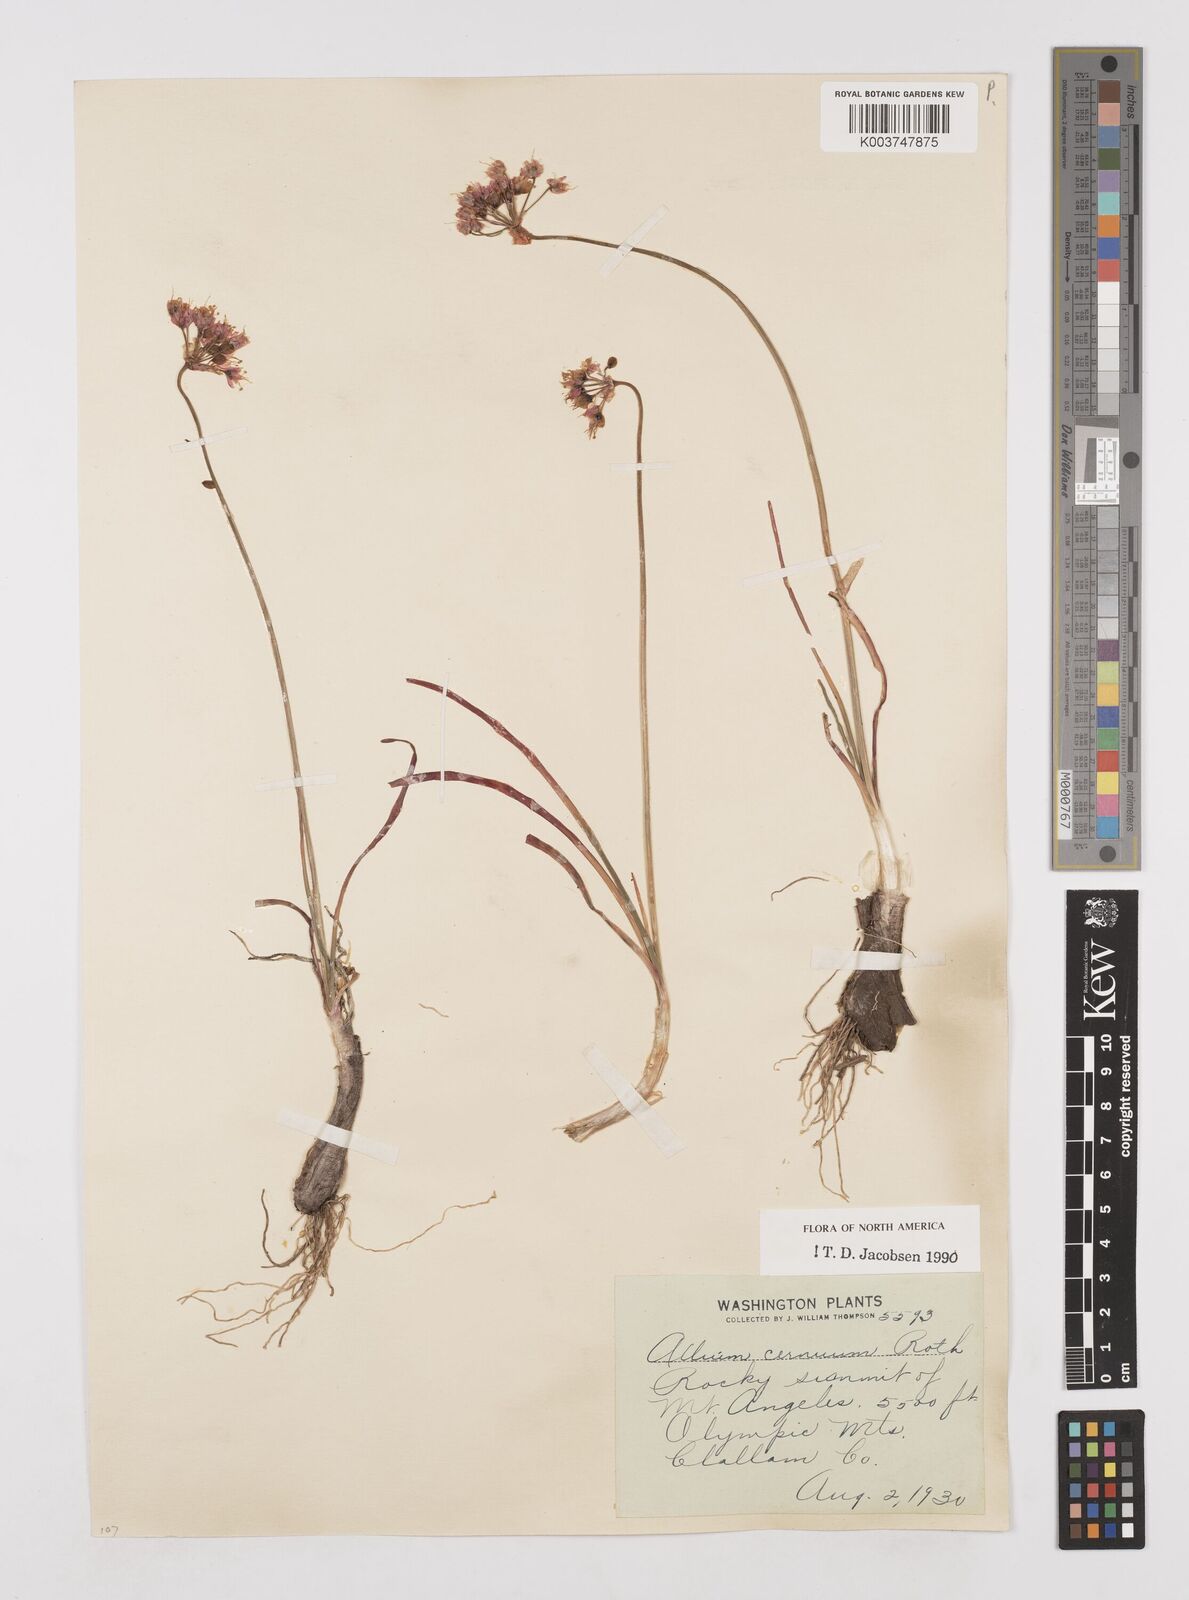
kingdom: Plantae
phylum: Tracheophyta
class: Liliopsida
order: Asparagales
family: Amaryllidaceae
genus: Allium
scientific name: Allium cernuum
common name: Nodding onion
